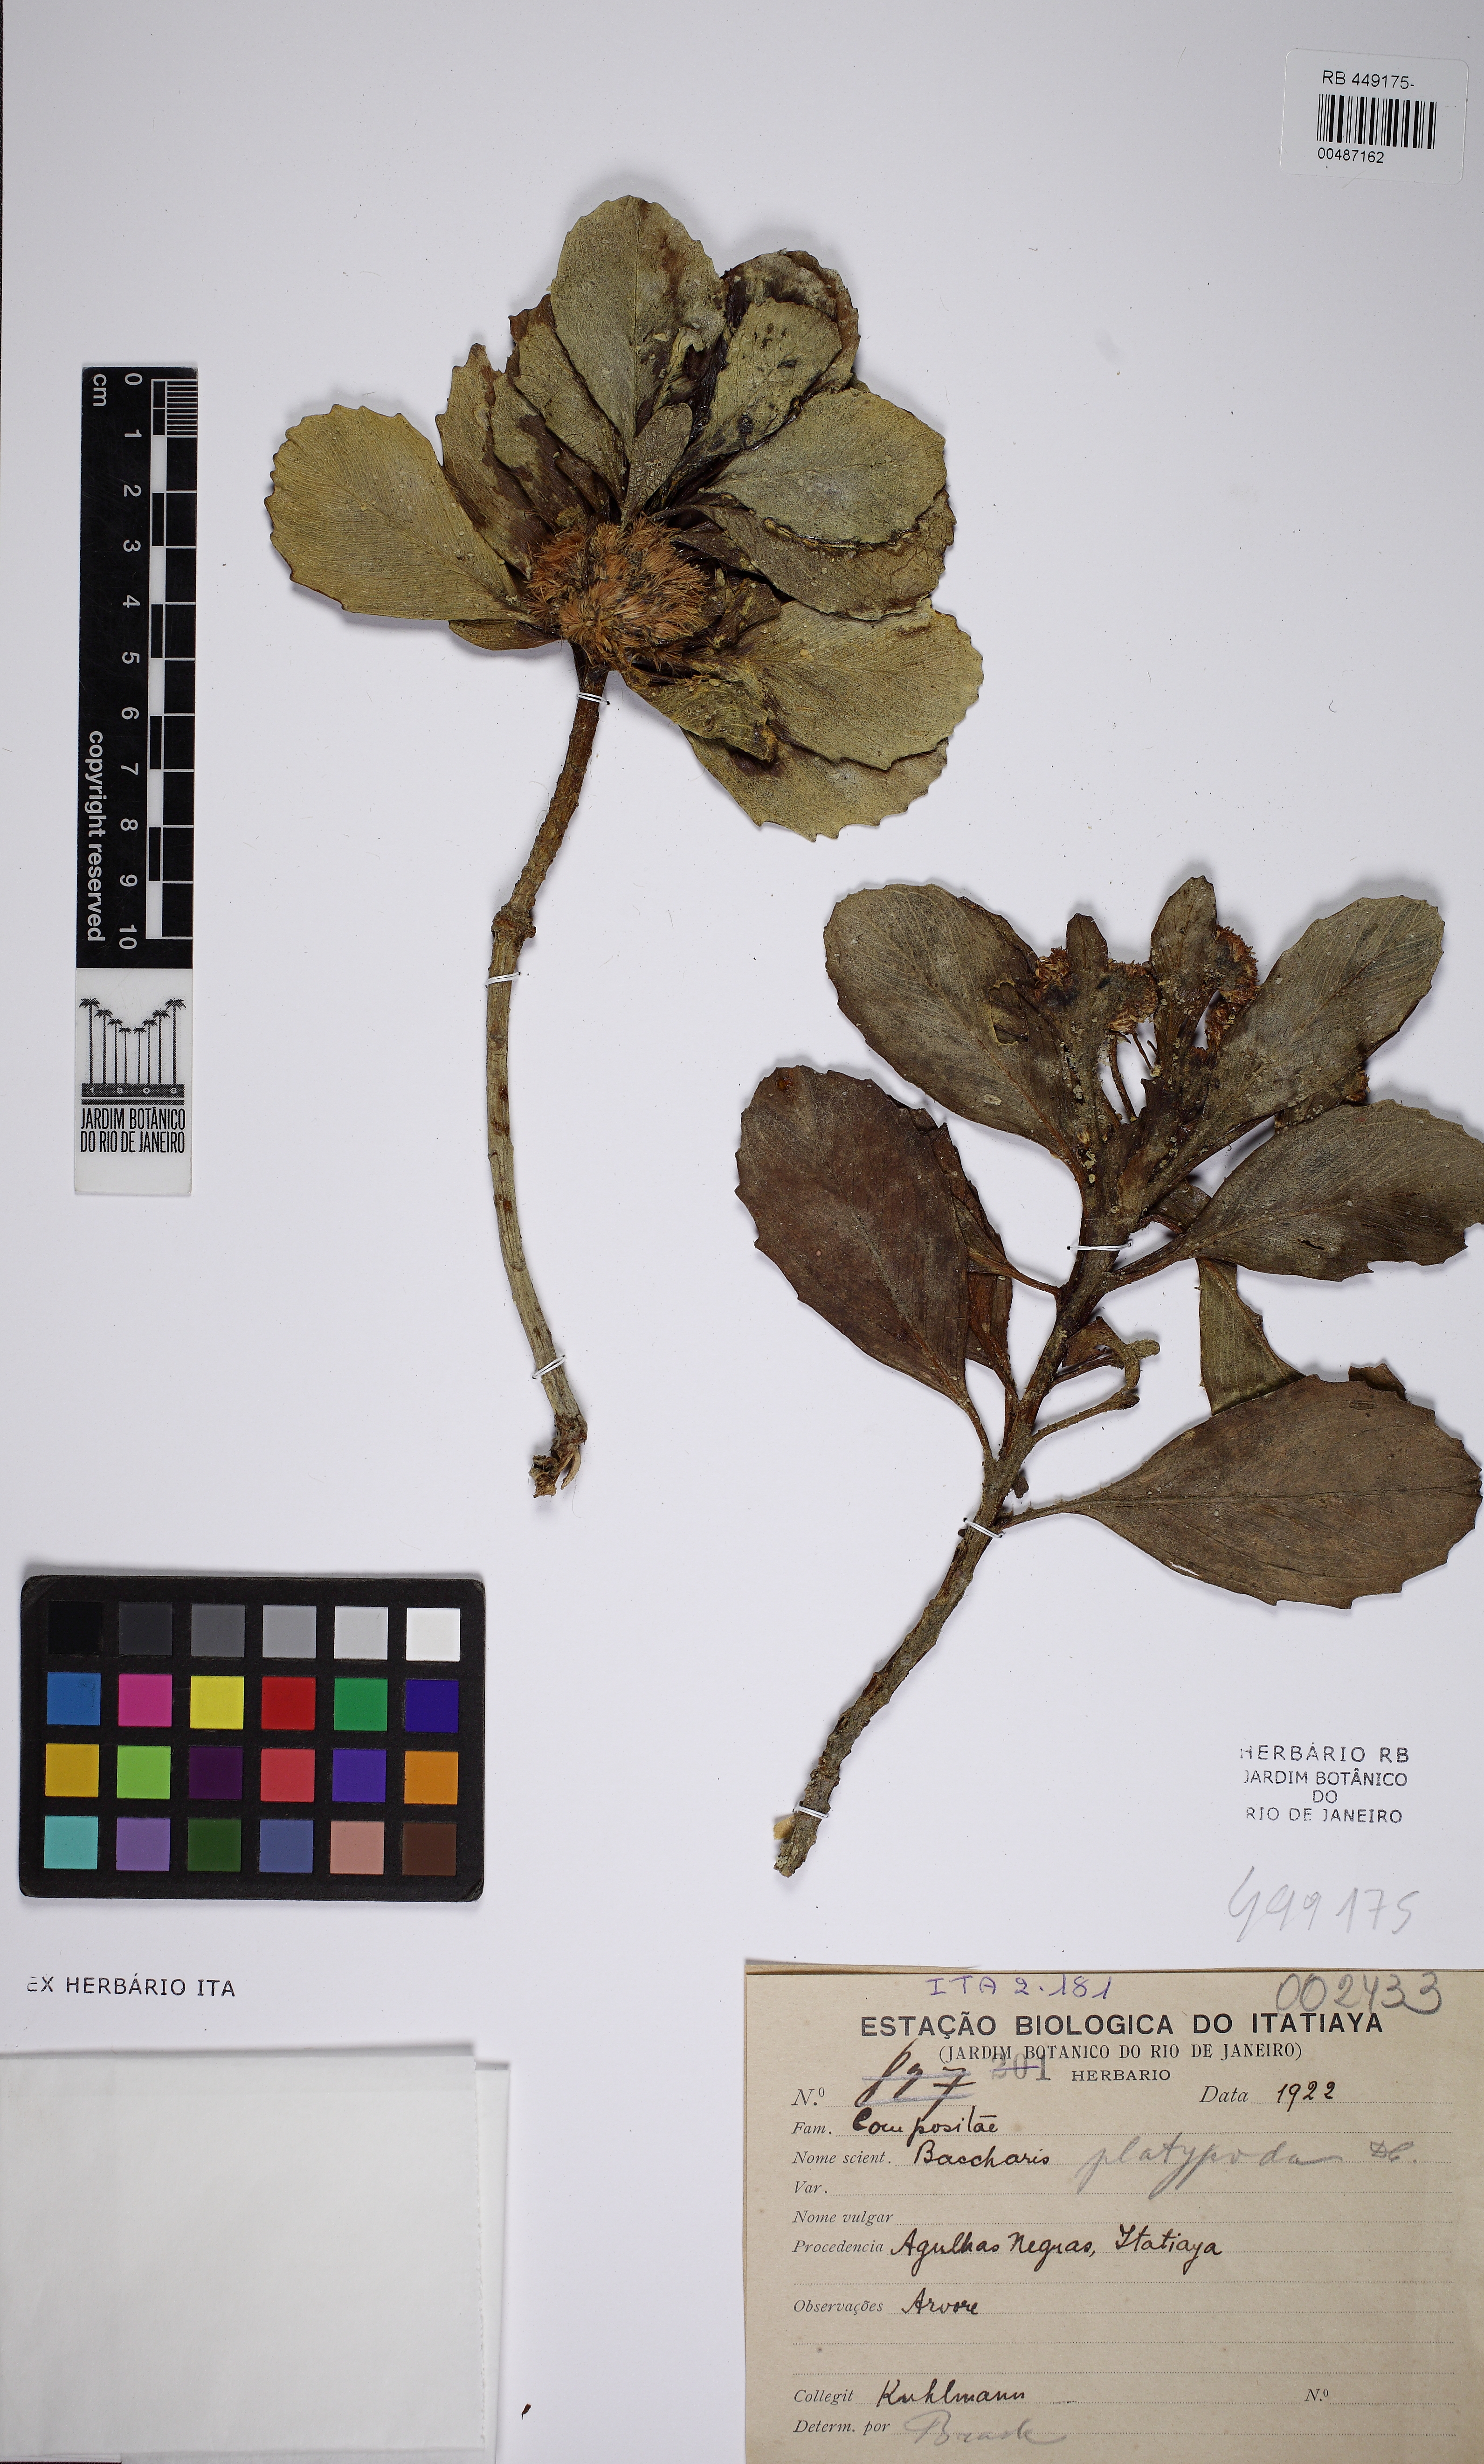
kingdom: Plantae
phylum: Tracheophyta
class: Magnoliopsida
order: Asterales
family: Asteraceae
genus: Baccharis
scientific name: Baccharis platypoda
